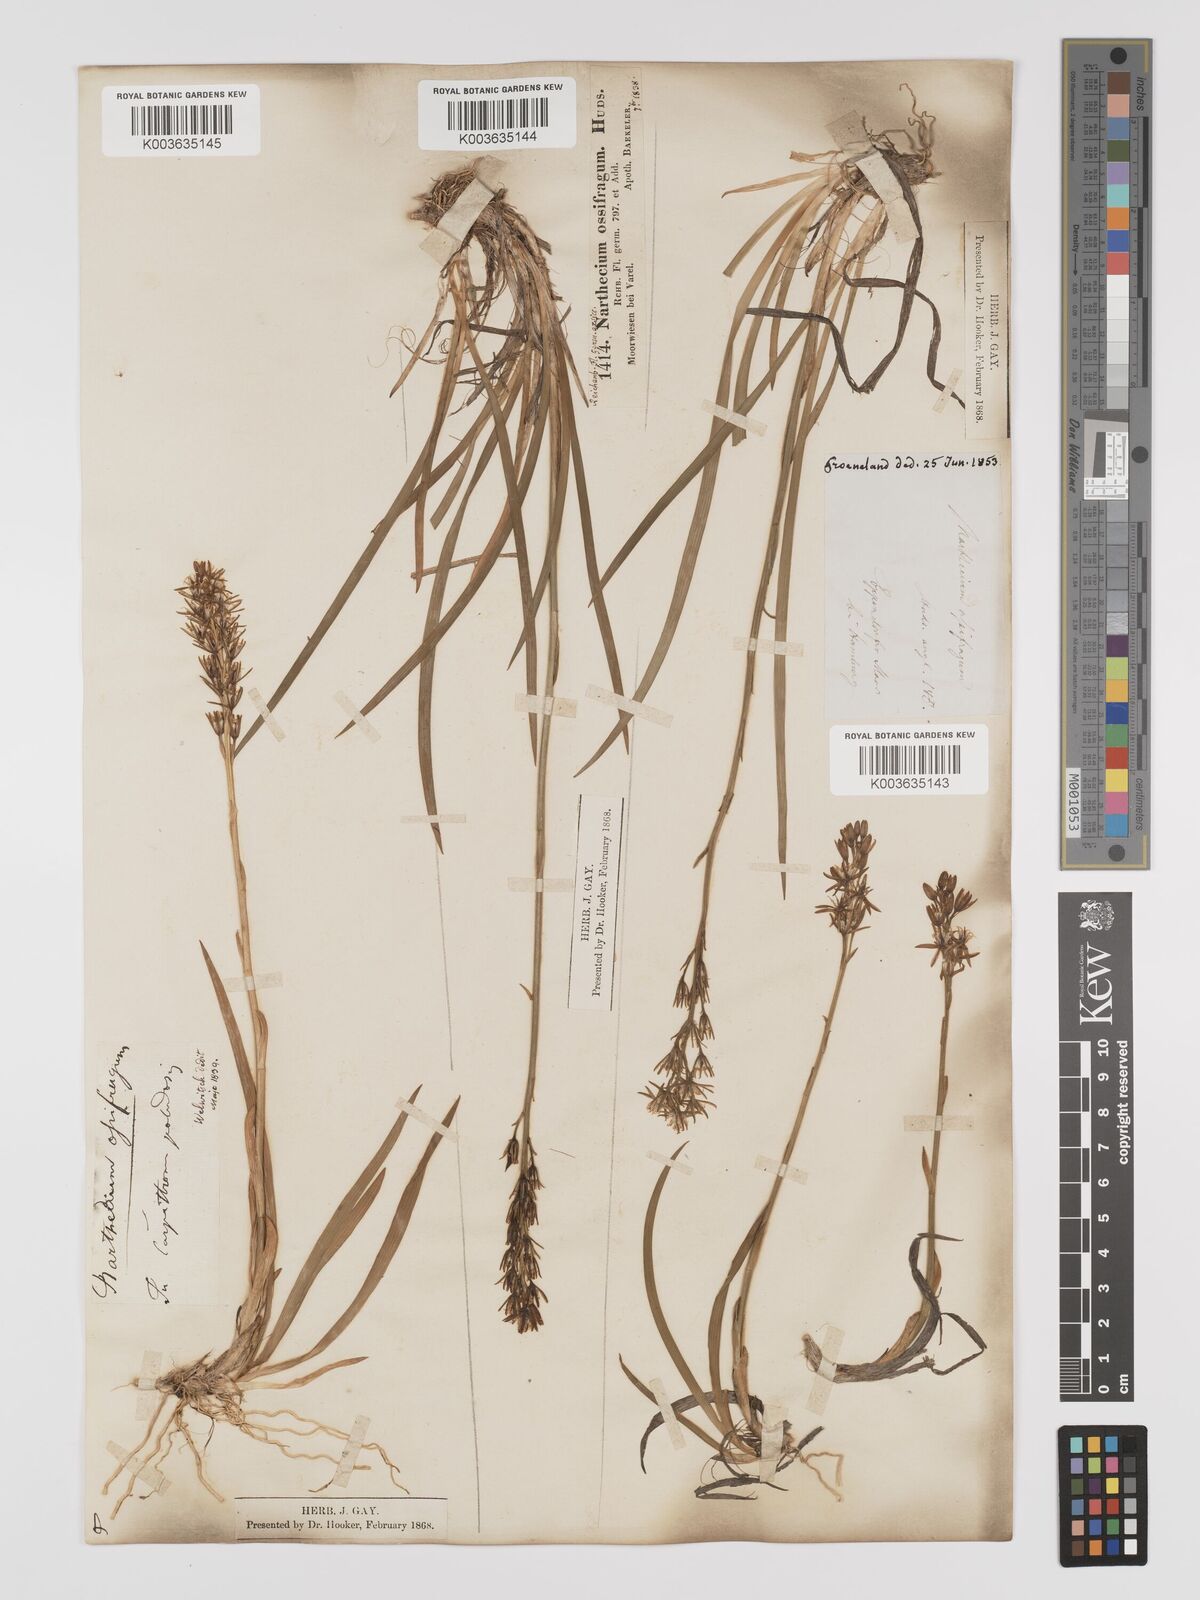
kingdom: Plantae
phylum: Tracheophyta
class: Liliopsida
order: Dioscoreales
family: Nartheciaceae
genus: Narthecium
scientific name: Narthecium ossifragum
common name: Bog asphodel
